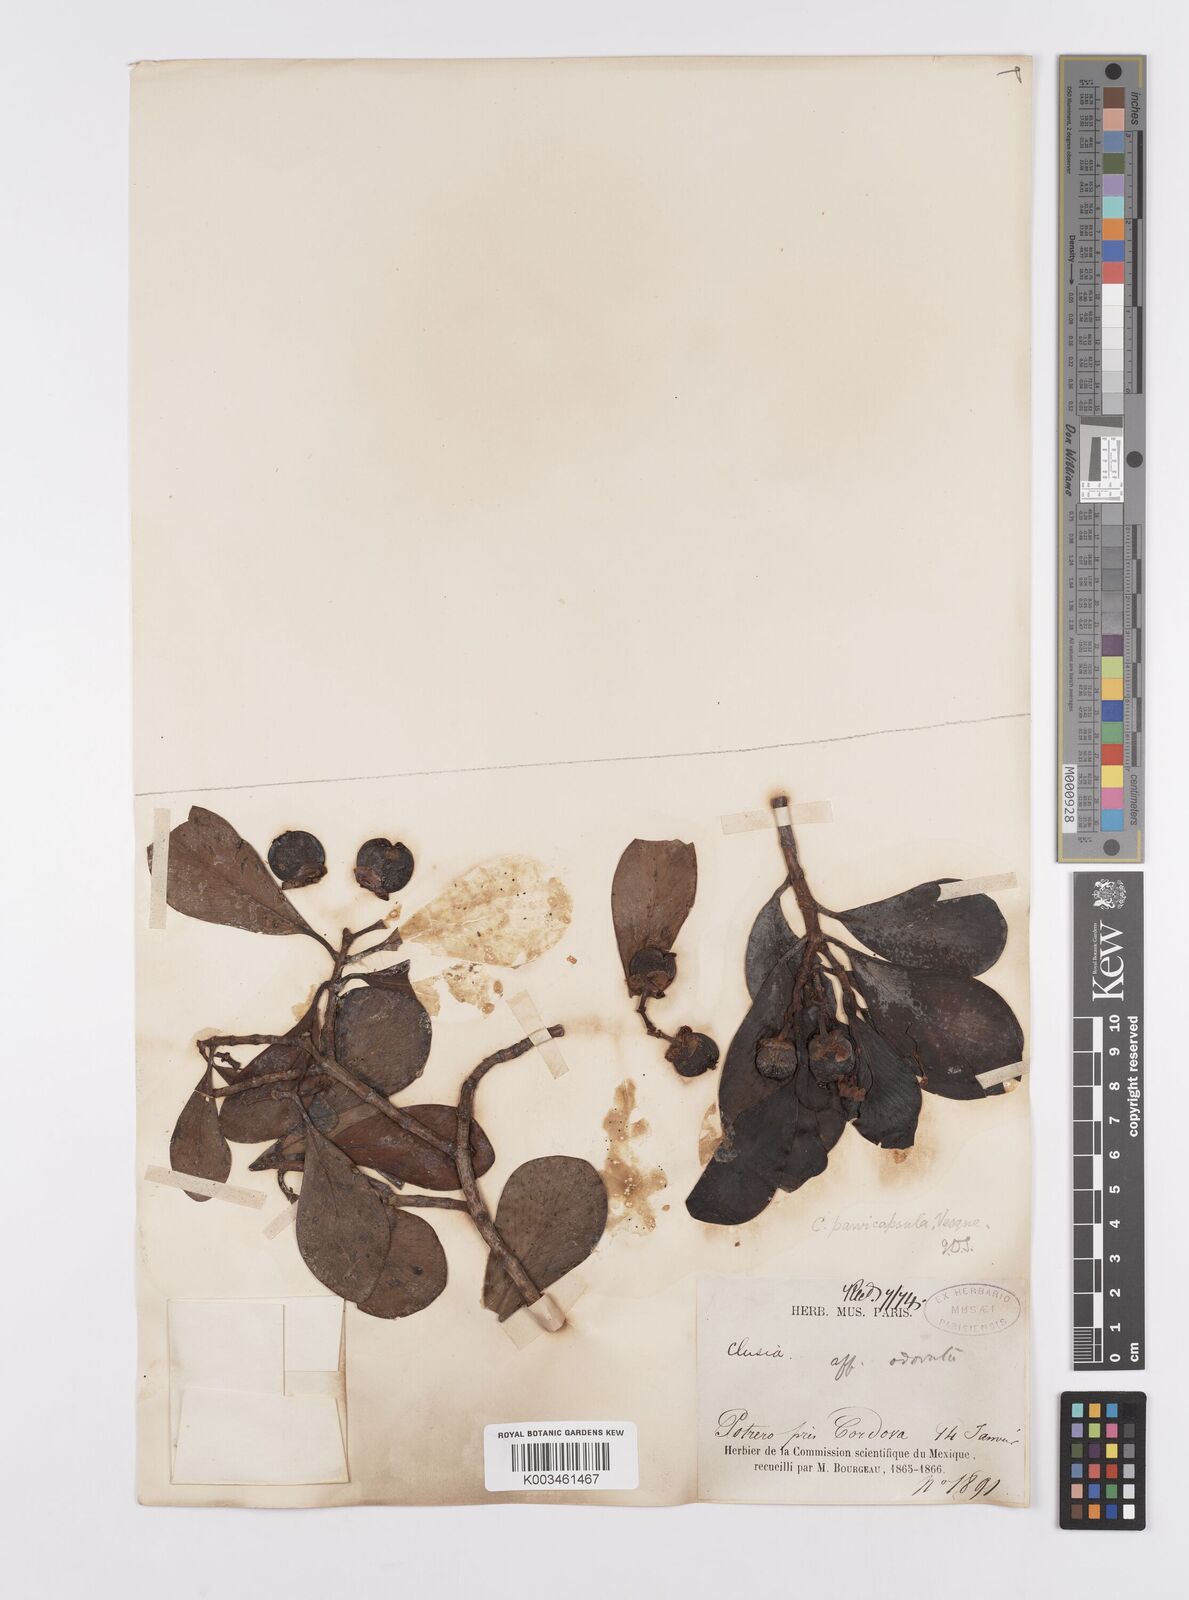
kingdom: Plantae
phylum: Tracheophyta
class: Magnoliopsida
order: Malpighiales
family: Clusiaceae
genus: Clusia
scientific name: Clusia minor
